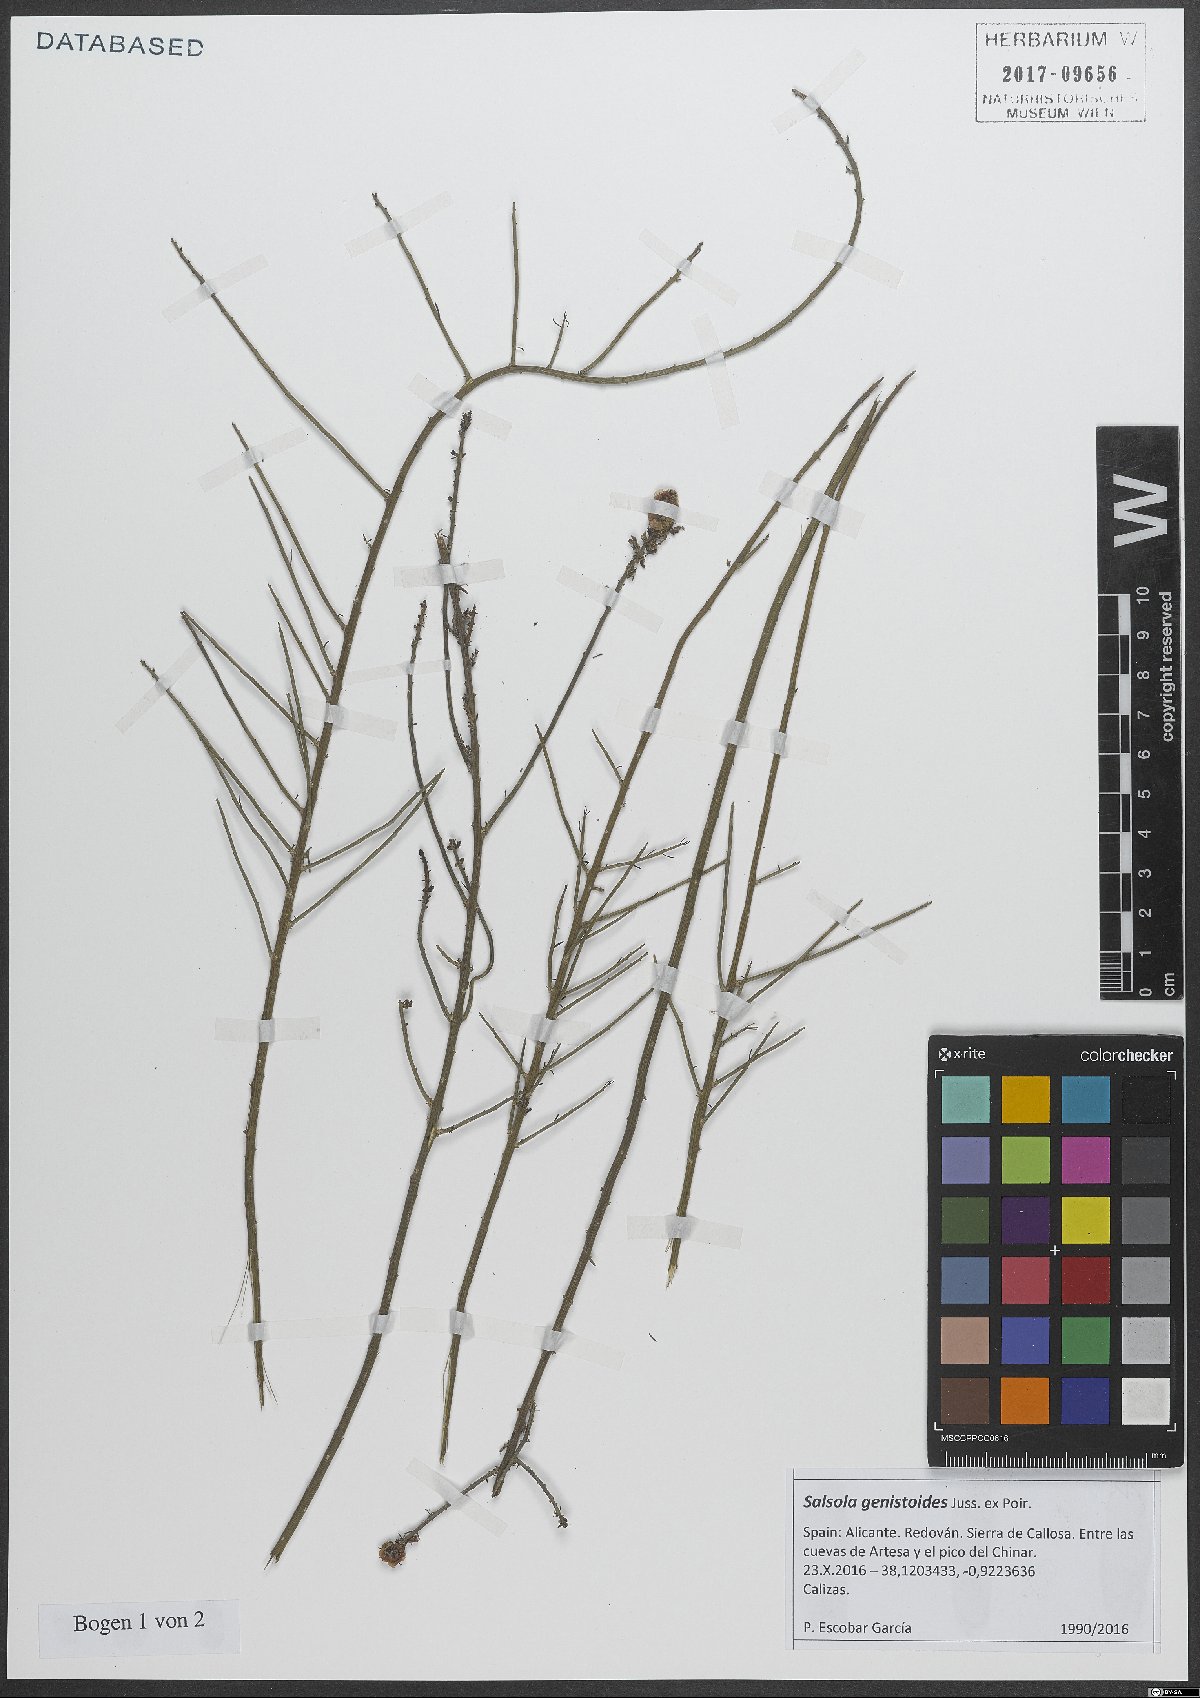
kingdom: Plantae
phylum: Tracheophyta
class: Magnoliopsida
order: Caryophyllales
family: Amaranthaceae
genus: Caroxylon
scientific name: Caroxylon genistoides
